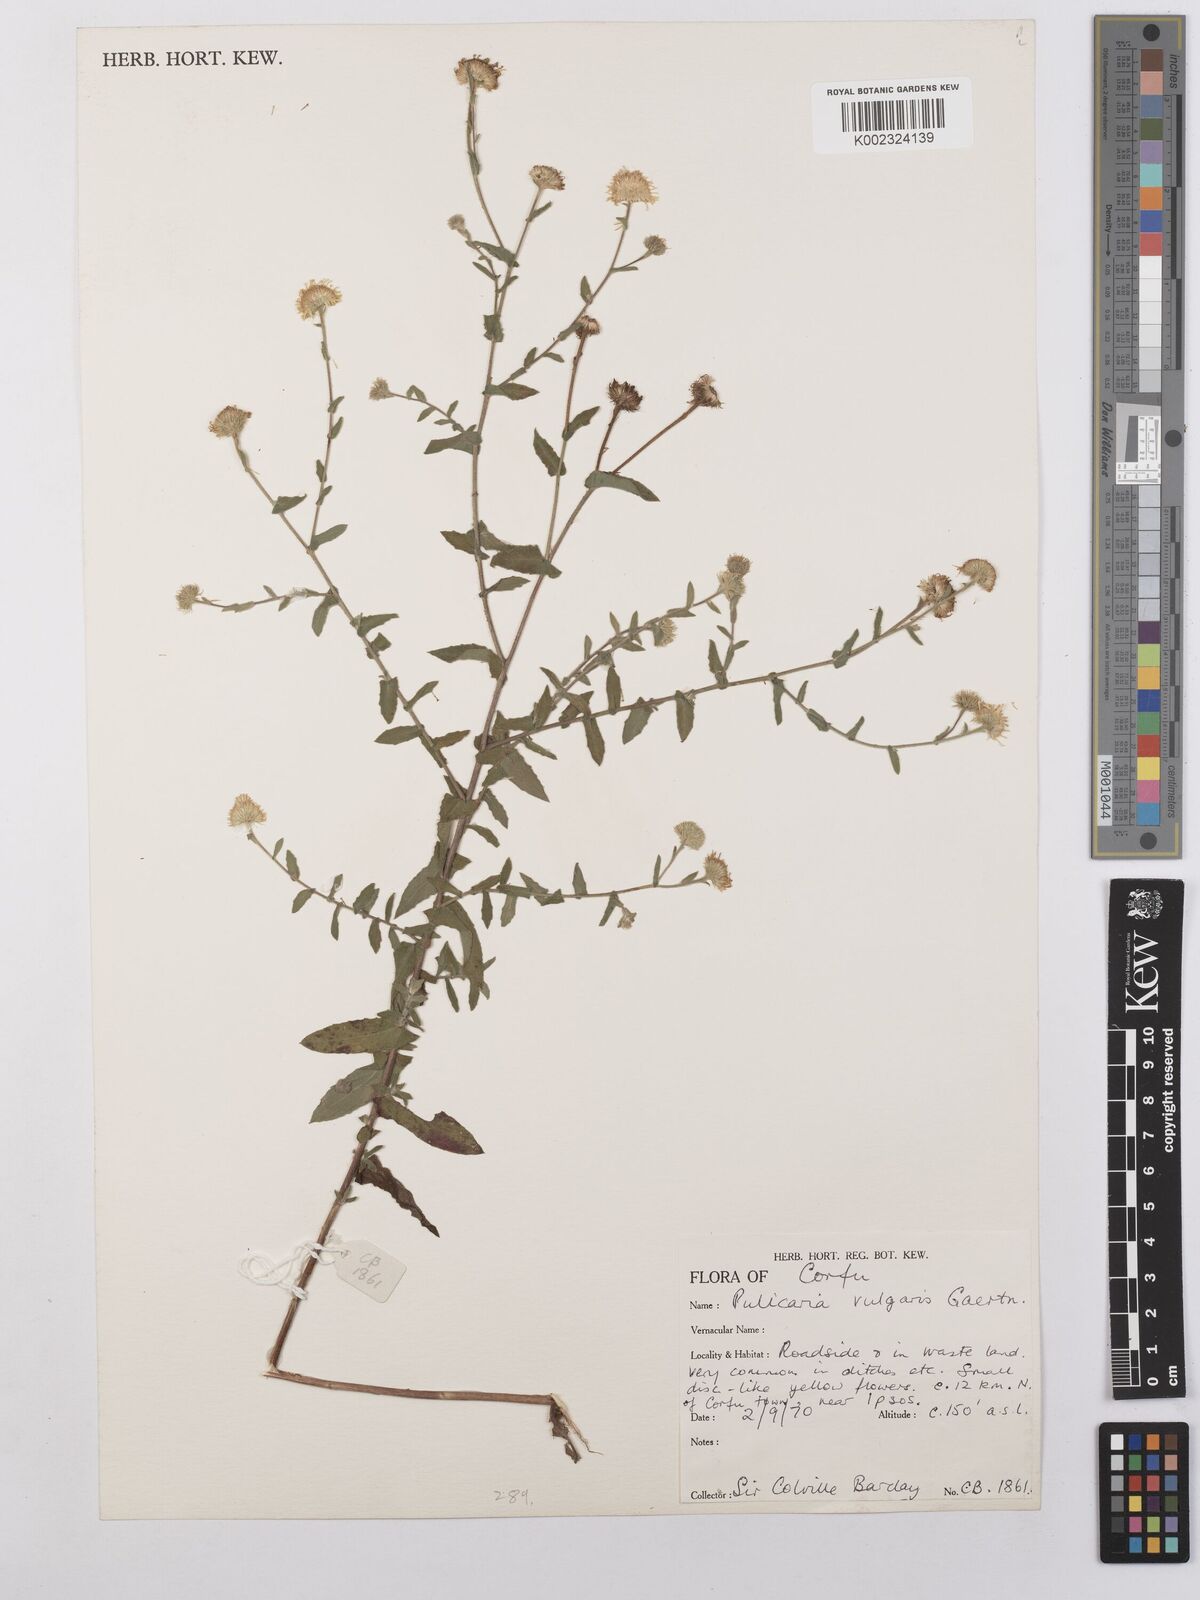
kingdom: Plantae
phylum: Tracheophyta
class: Magnoliopsida
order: Asterales
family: Asteraceae
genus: Pulicaria
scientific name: Pulicaria vulgaris
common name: Small fleabane
